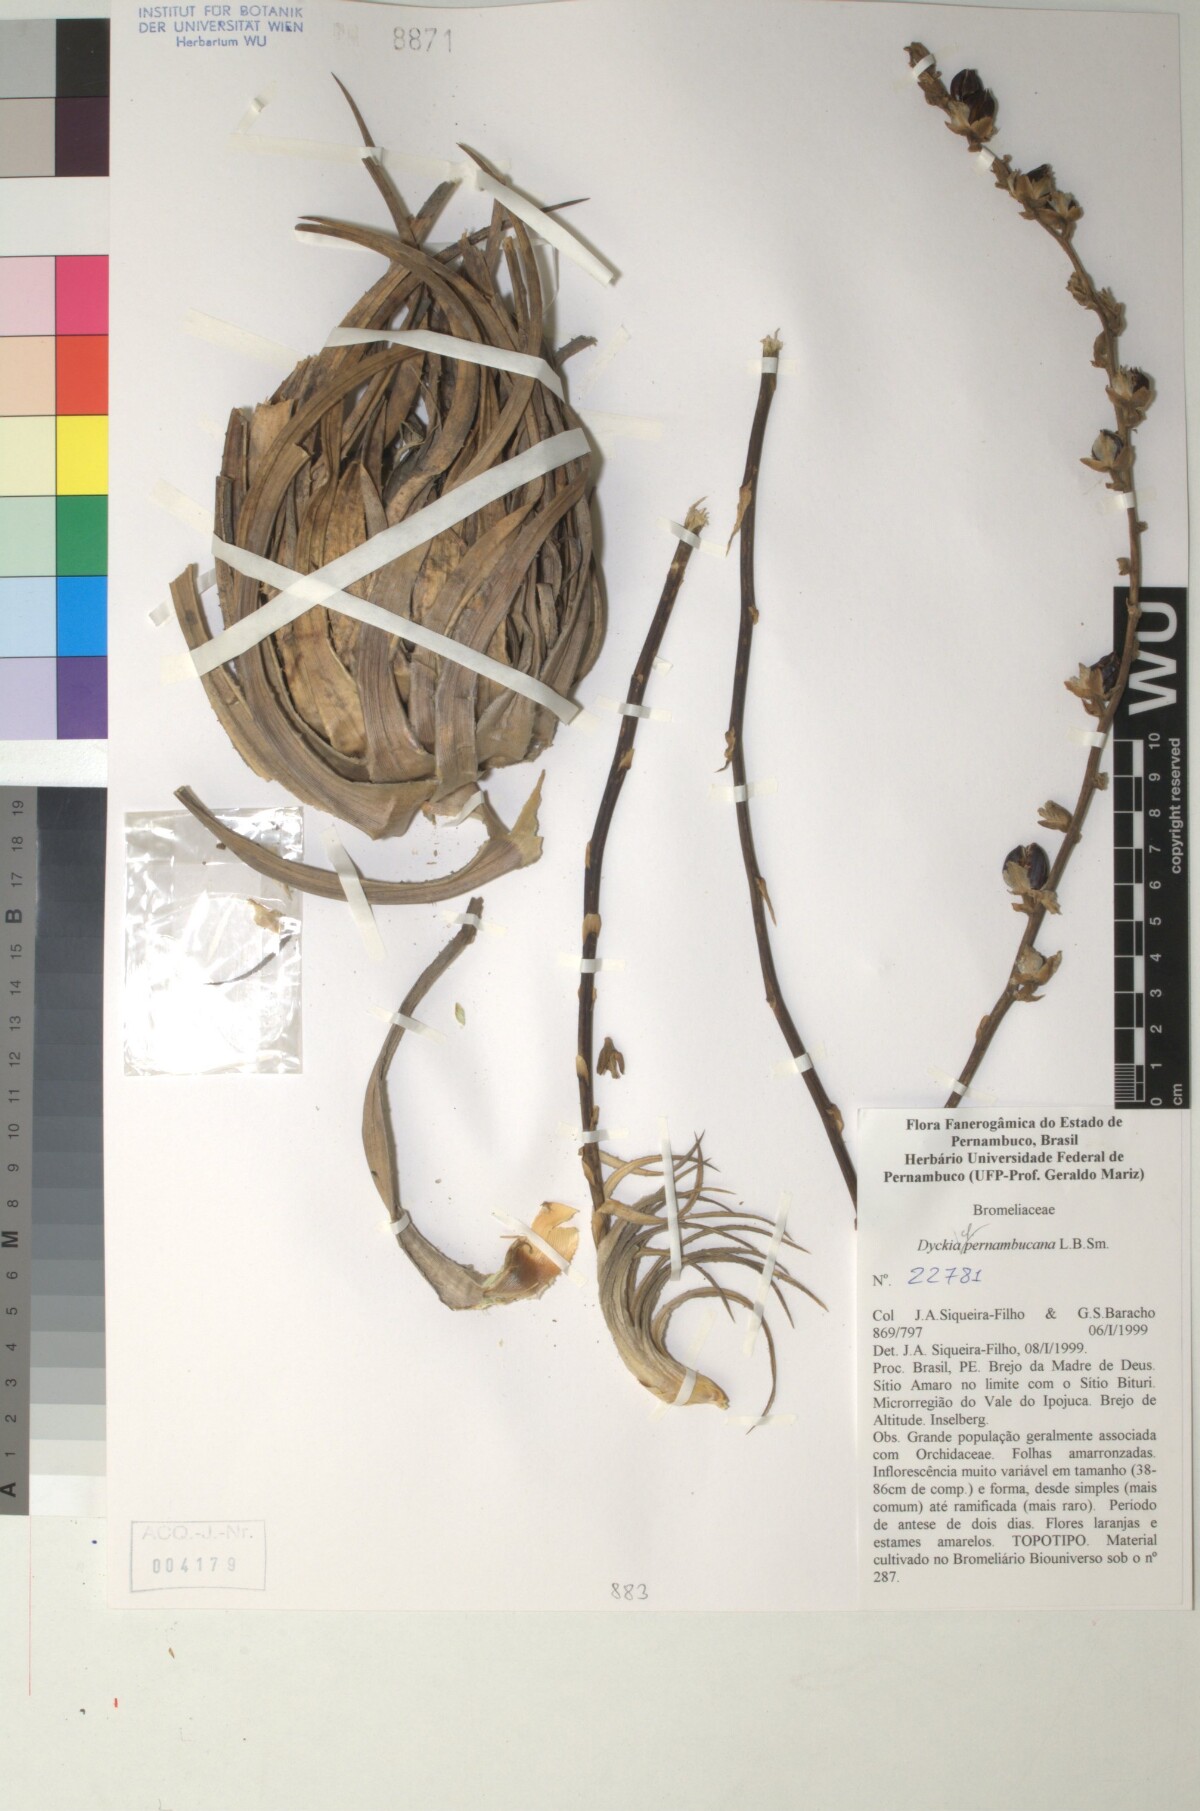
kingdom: Plantae
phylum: Tracheophyta
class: Liliopsida
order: Poales
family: Bromeliaceae
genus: Dyckia
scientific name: Dyckia pernambucana
